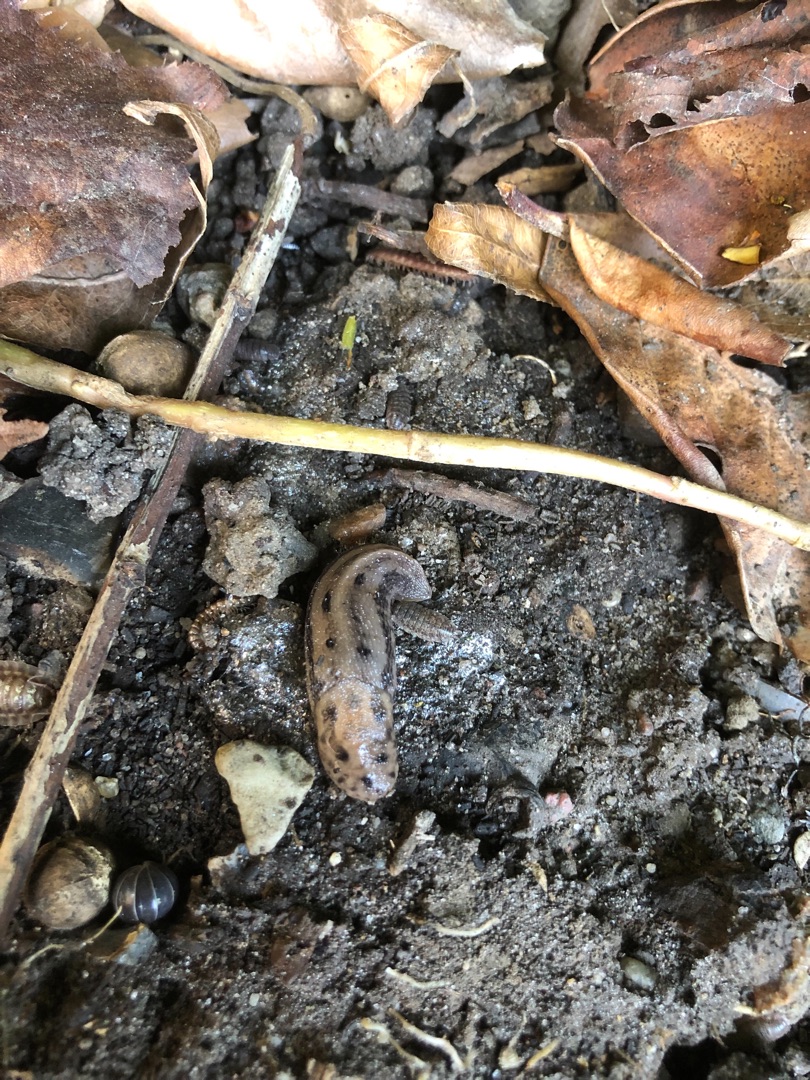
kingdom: Animalia
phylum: Mollusca
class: Gastropoda
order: Stylommatophora
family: Limacidae
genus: Limax
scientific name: Limax maximus
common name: Pantersnegl
